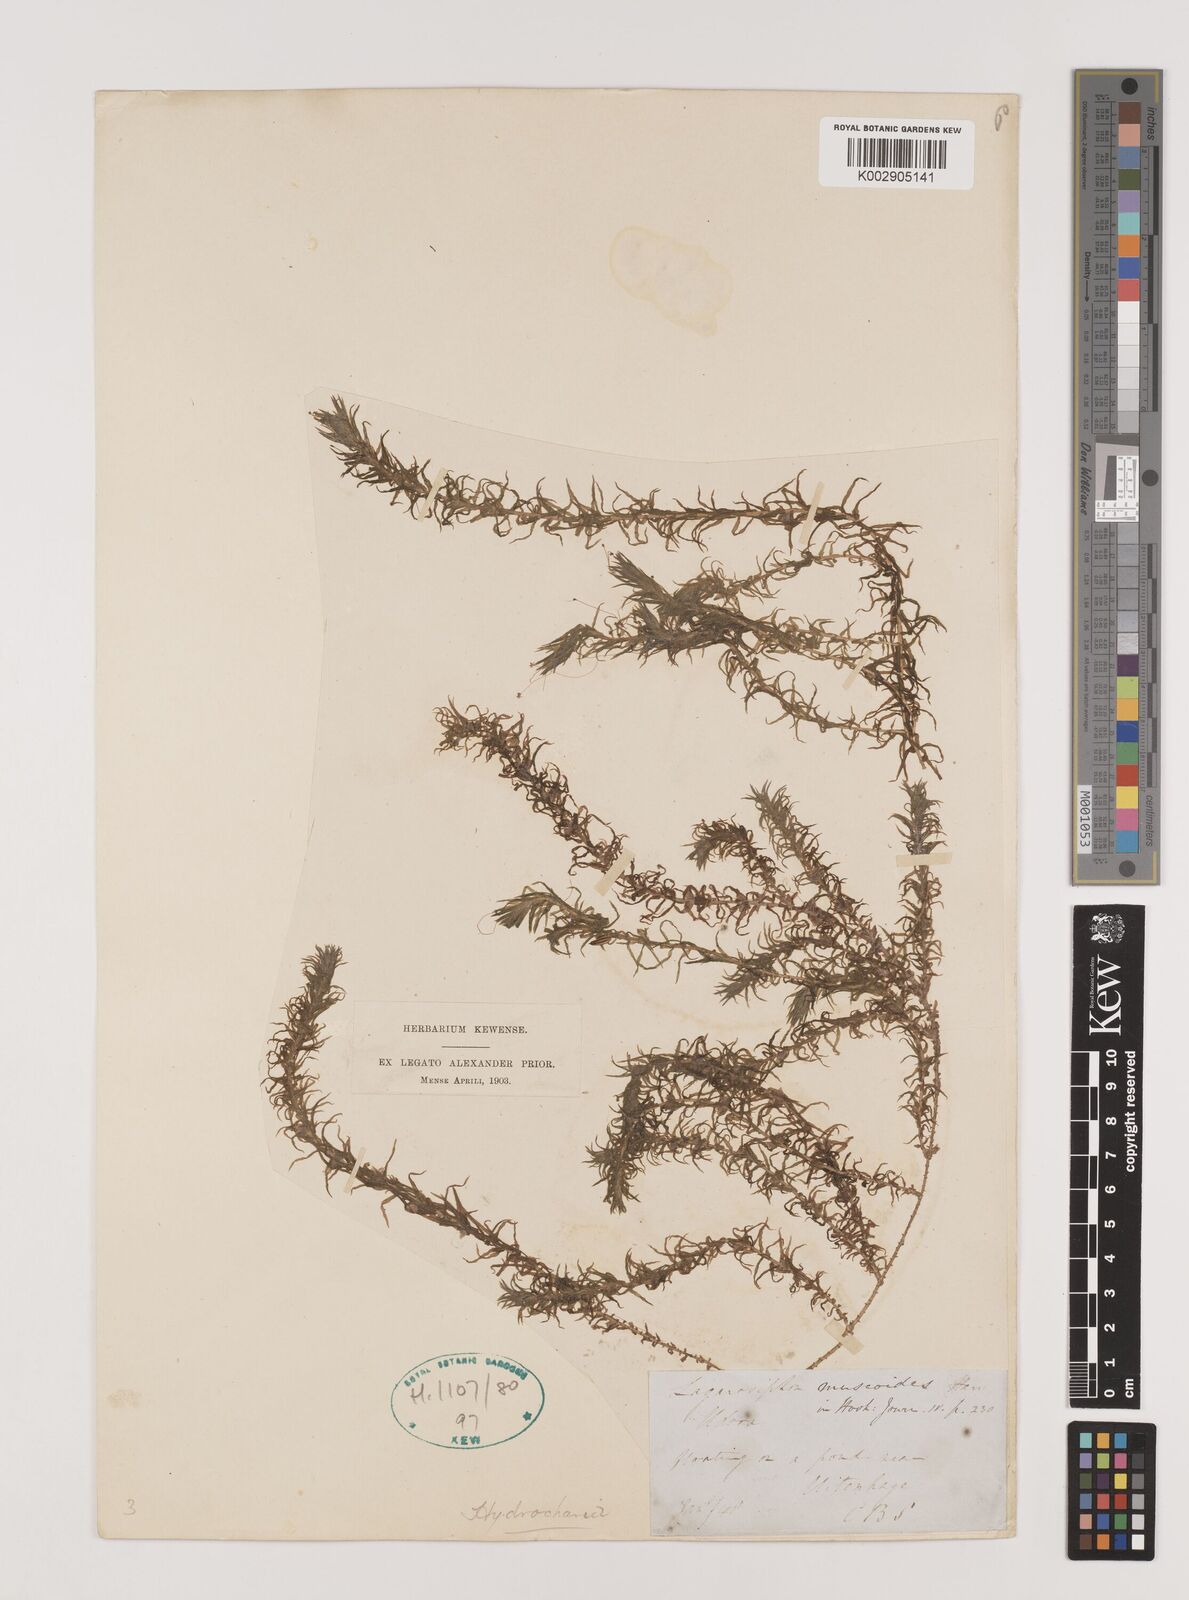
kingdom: Plantae
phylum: Tracheophyta
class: Liliopsida
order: Alismatales
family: Hydrocharitaceae
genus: Lagarosiphon
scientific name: Lagarosiphon muscoides
